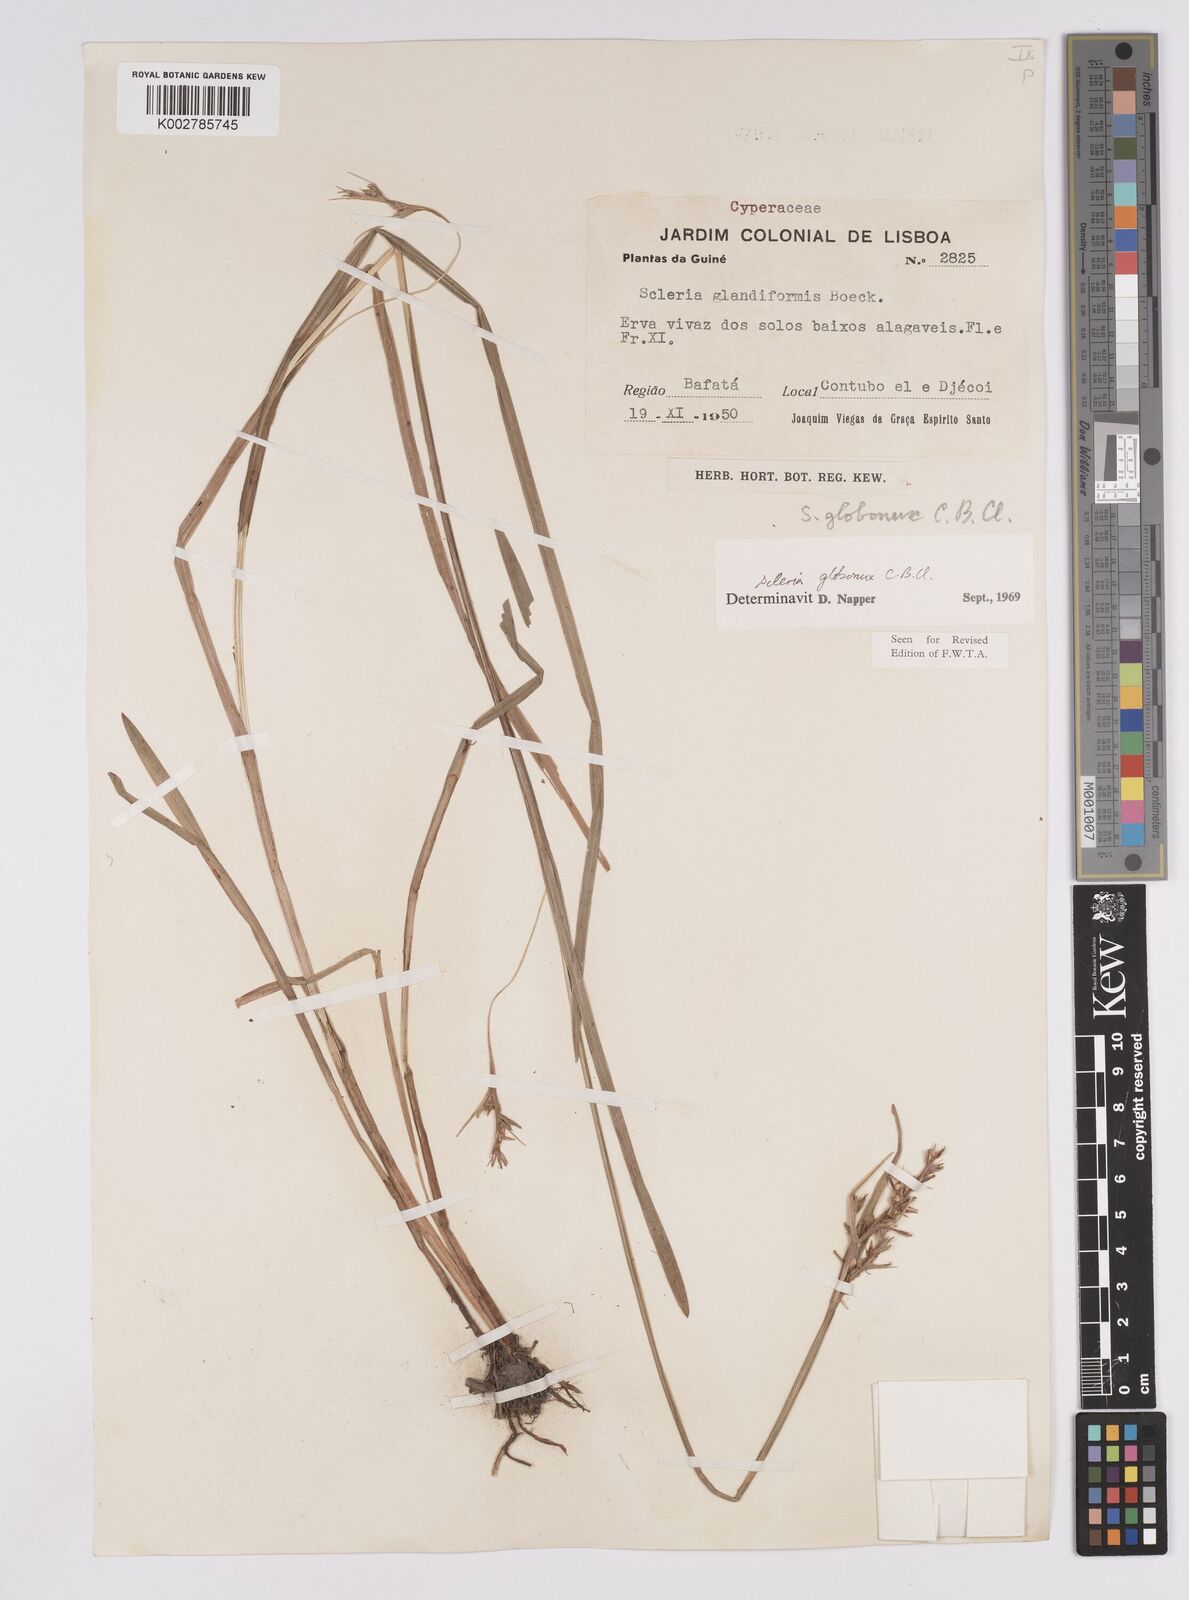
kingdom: Plantae
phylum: Tracheophyta
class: Liliopsida
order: Poales
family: Cyperaceae
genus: Scleria
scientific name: Scleria globonux
